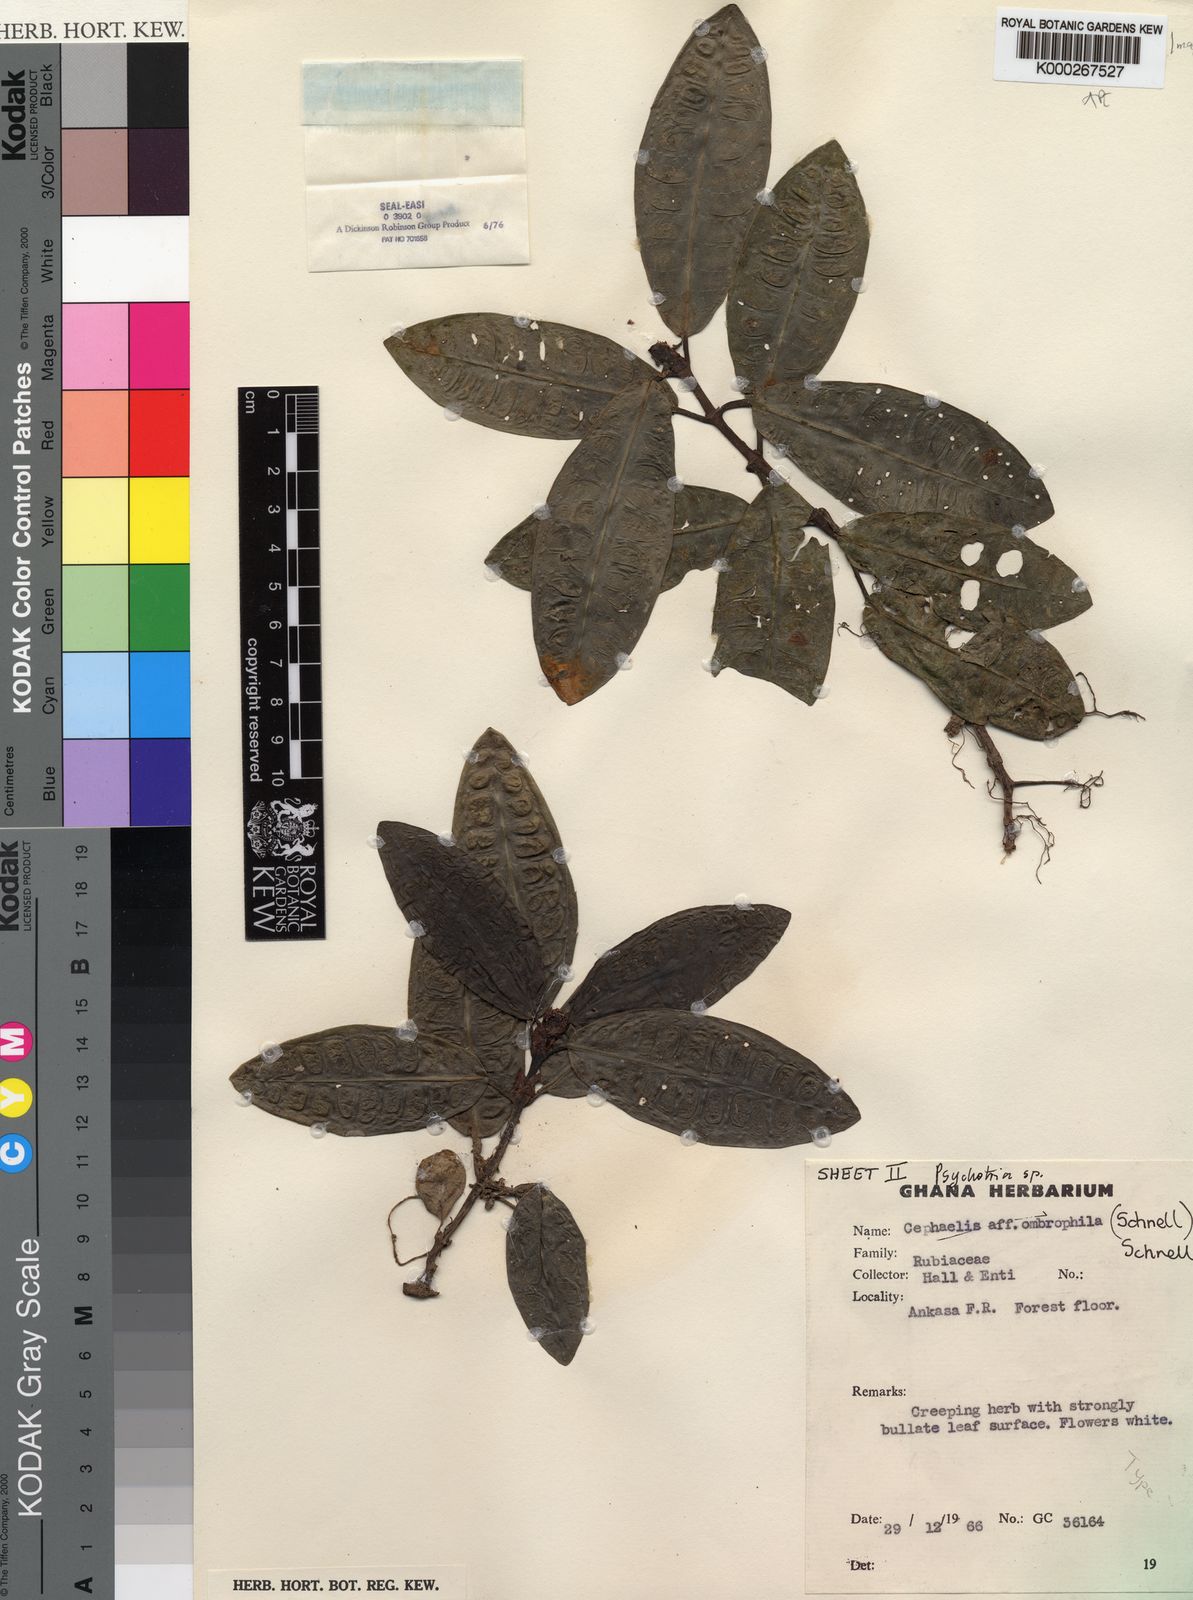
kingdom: Plantae
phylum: Tracheophyta
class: Magnoliopsida
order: Gentianales
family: Rubiaceae
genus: Psychotria
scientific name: Psychotria ankasensis
